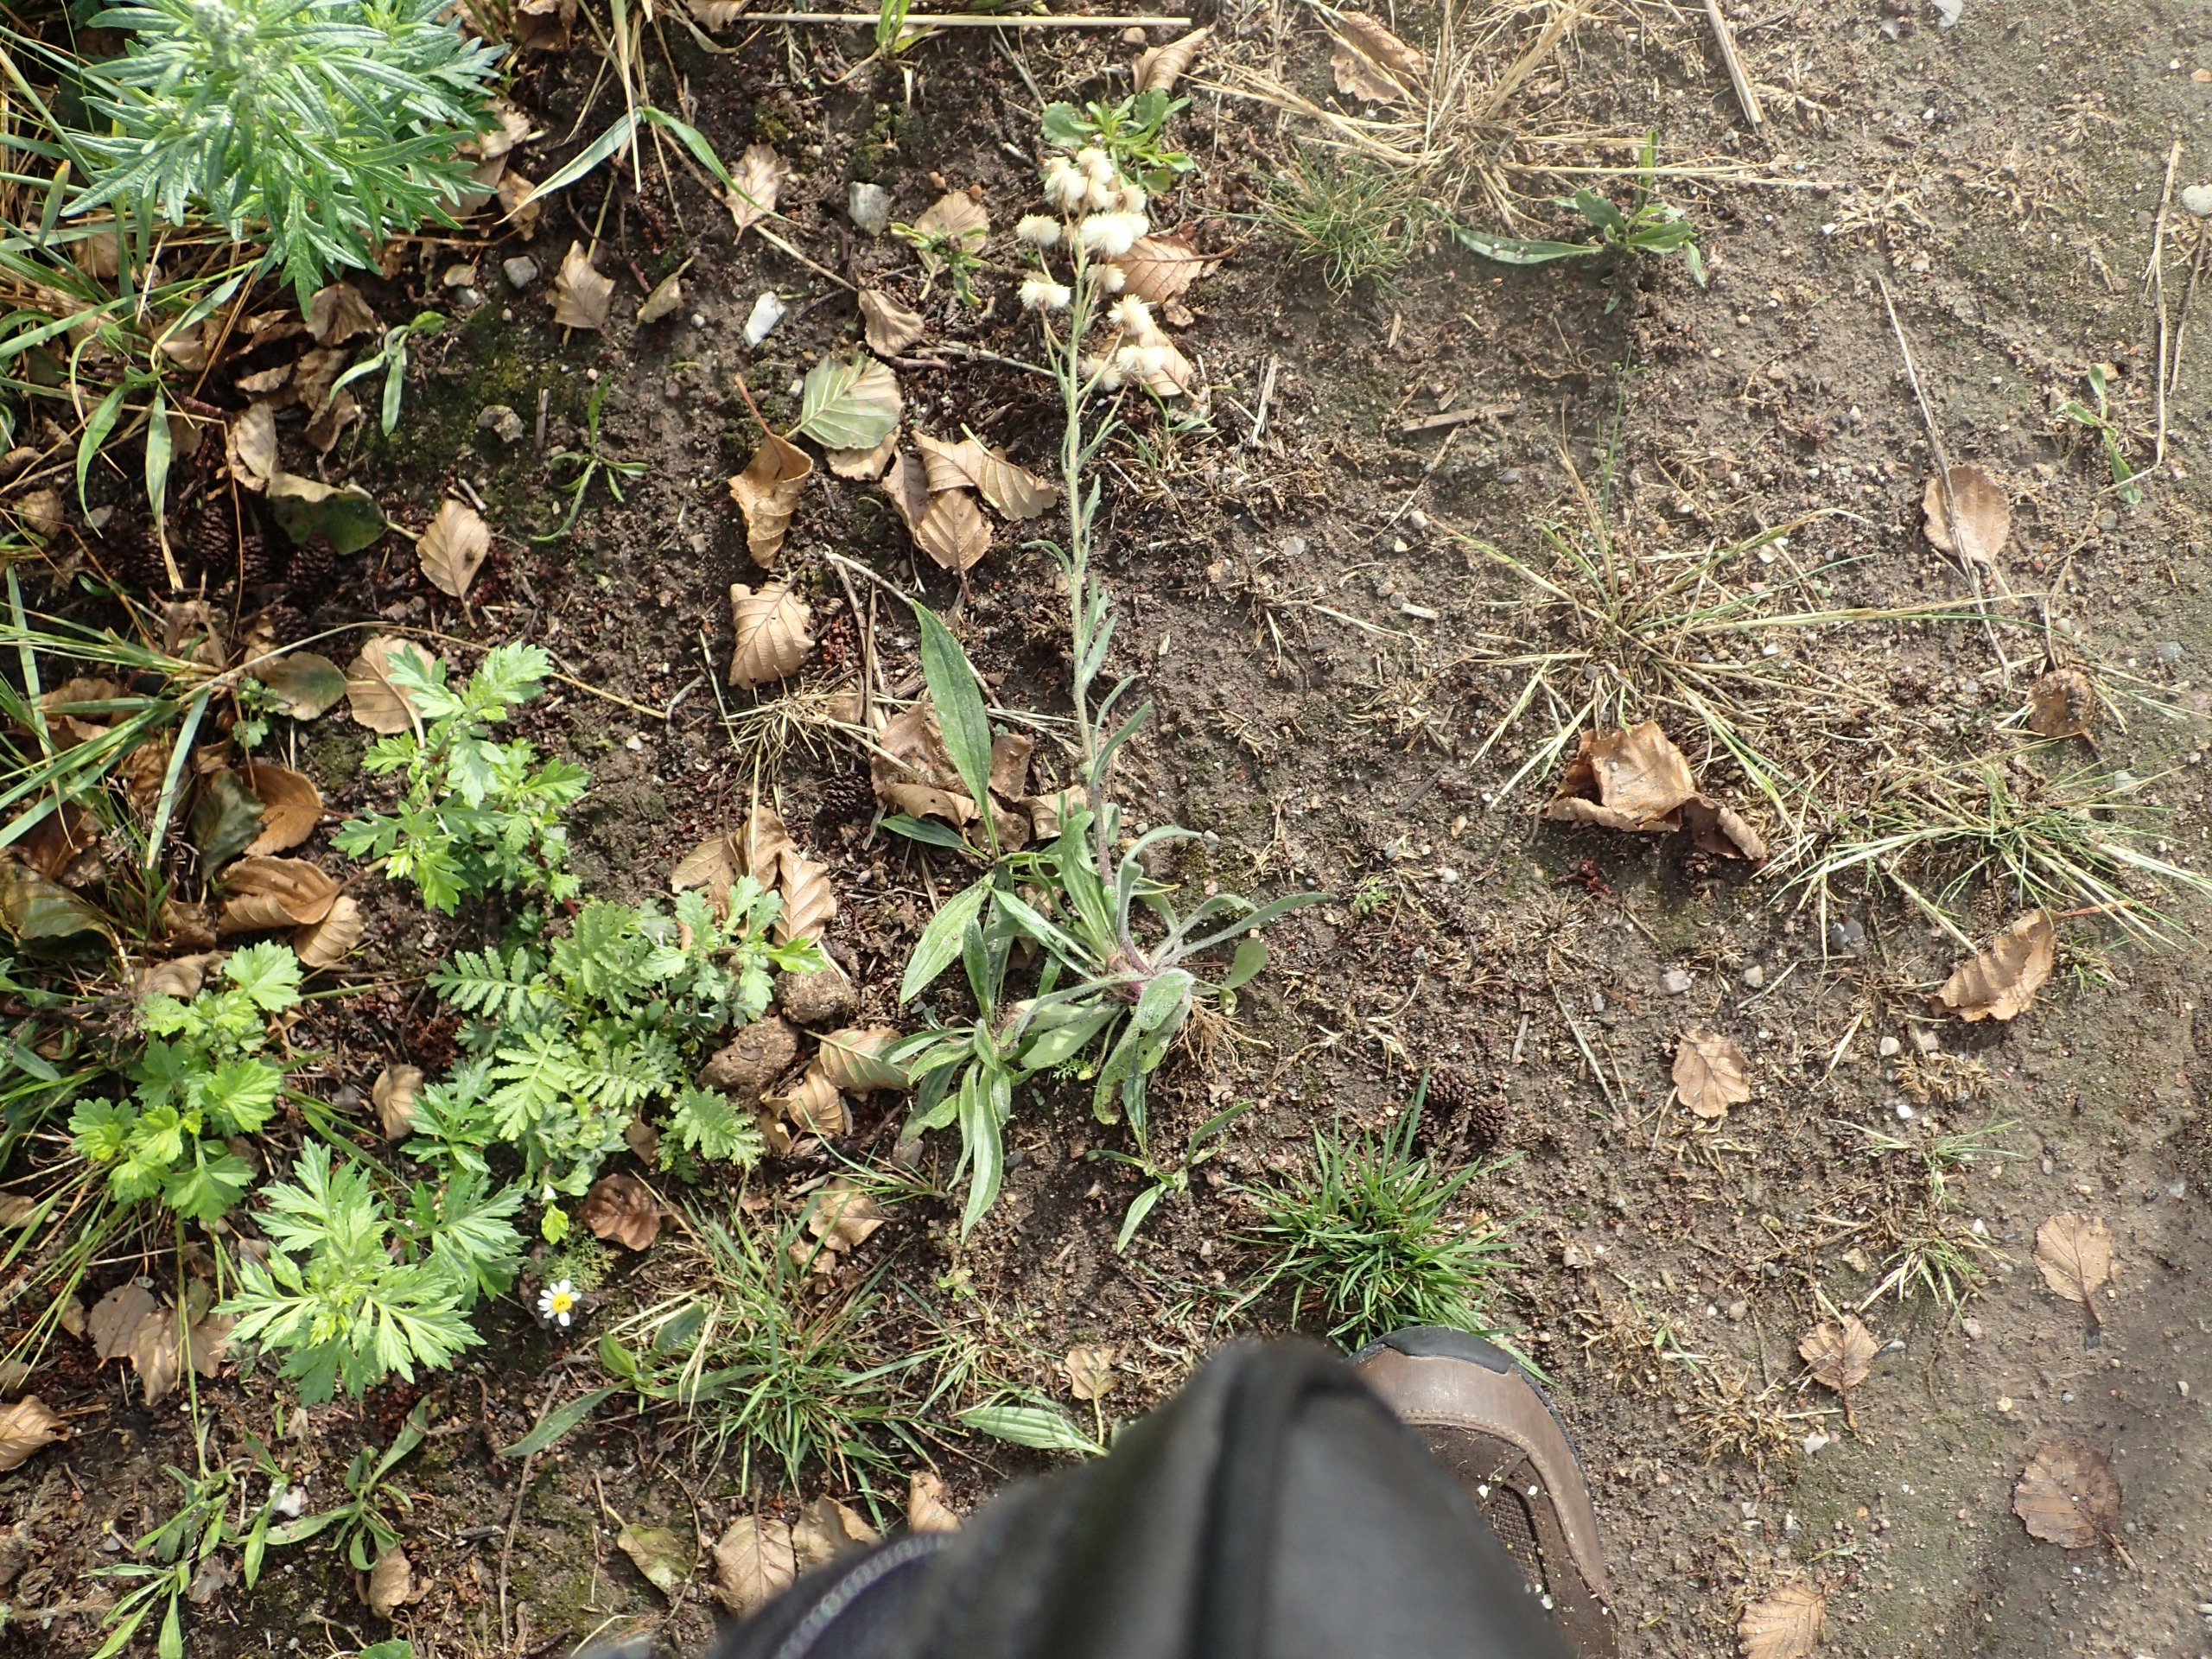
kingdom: Plantae
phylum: Tracheophyta
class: Magnoliopsida
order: Asterales
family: Asteraceae
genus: Erigeron
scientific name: Erigeron acris
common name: Bitter bakkestjerne
